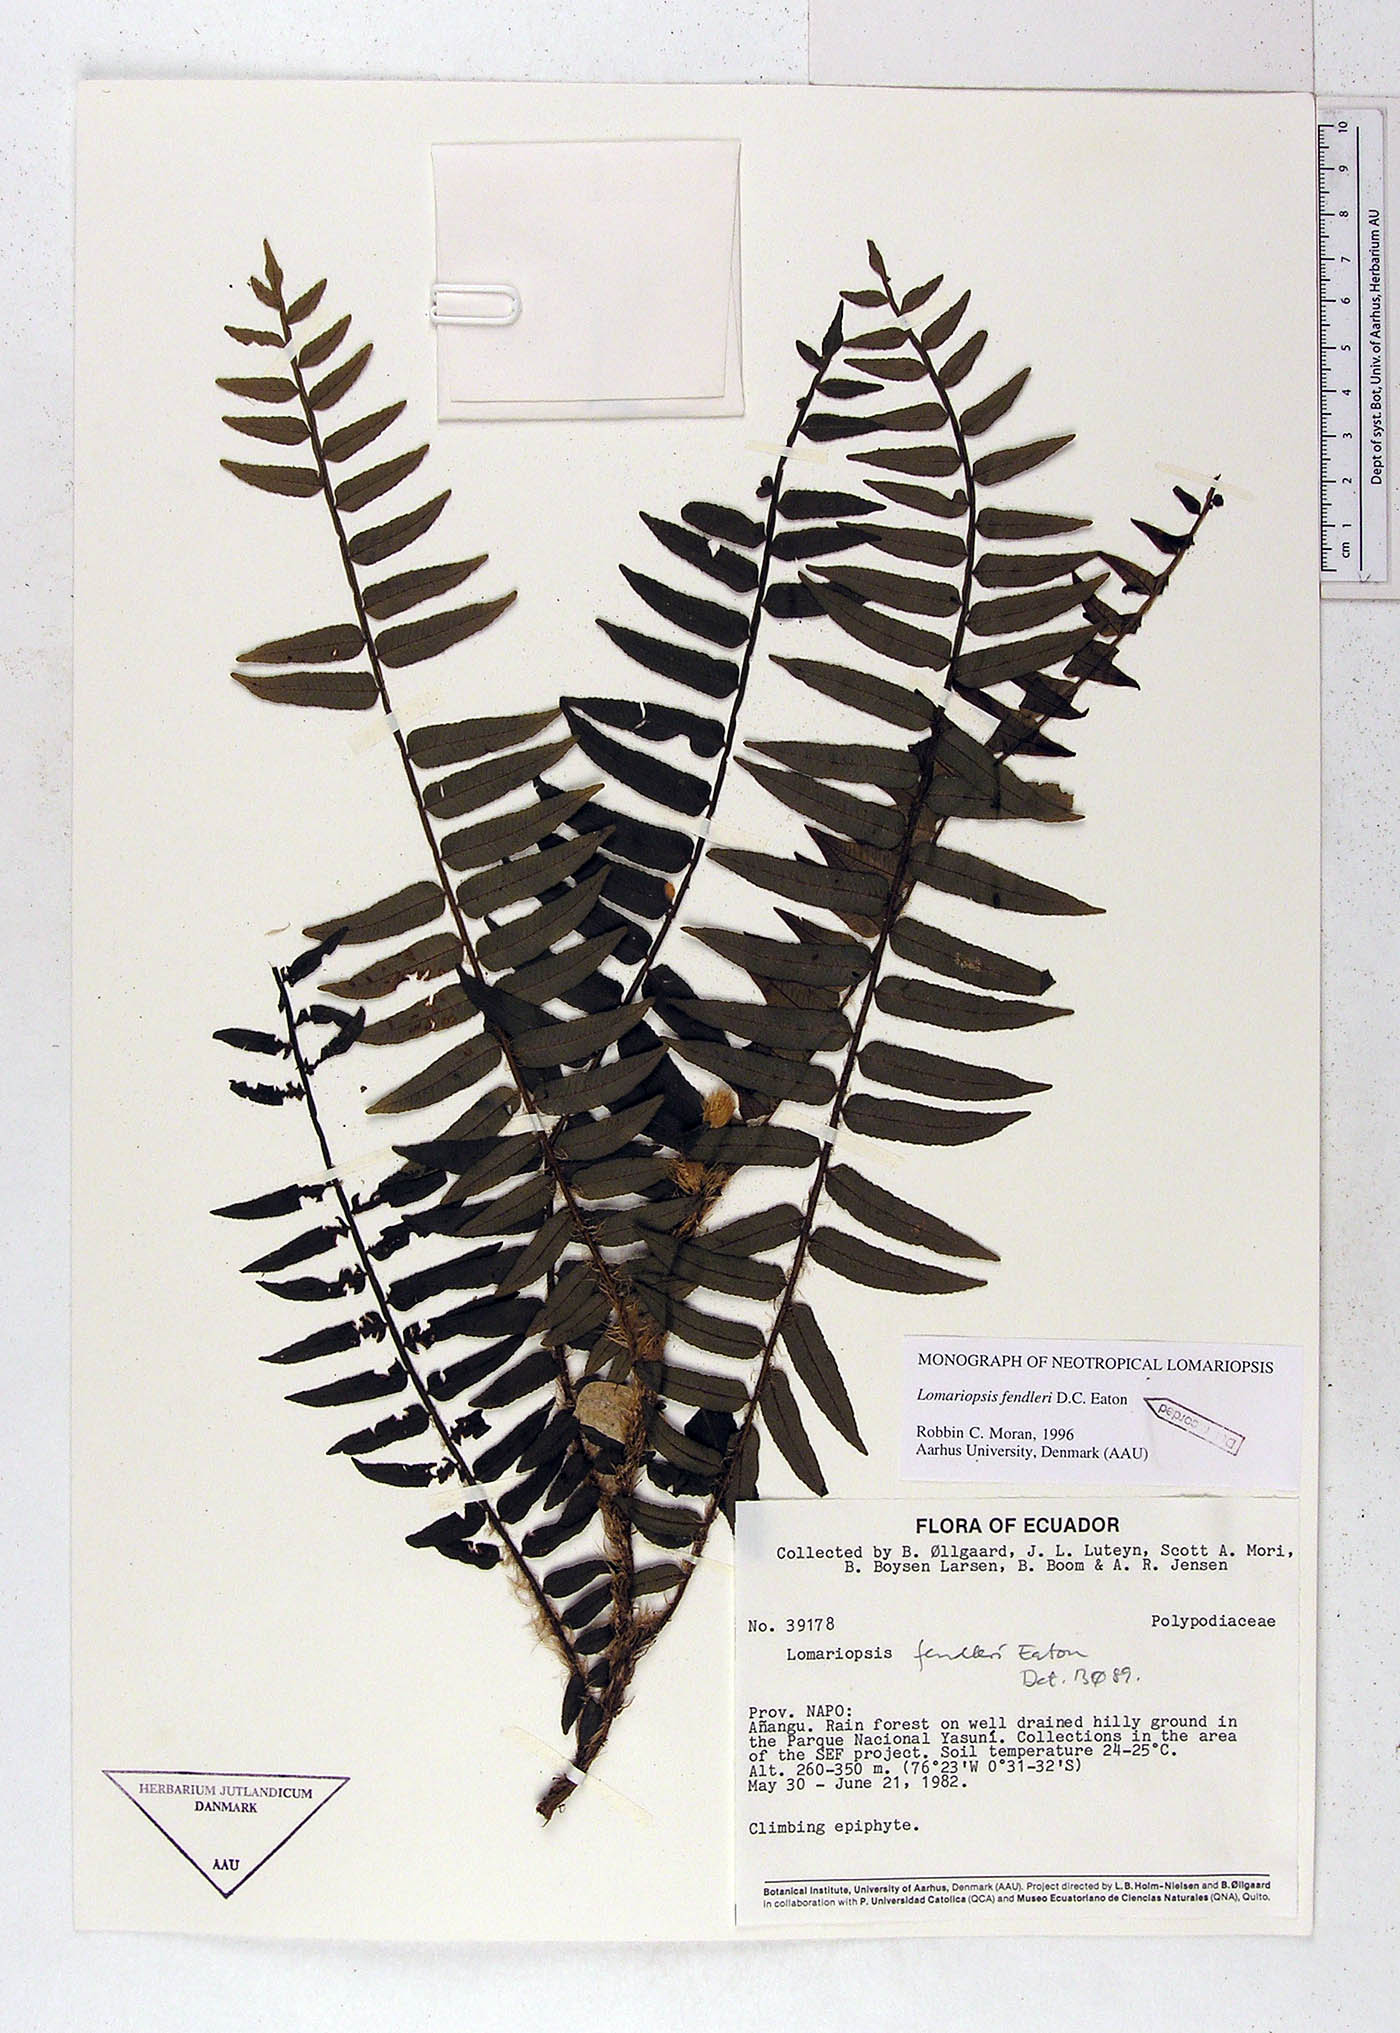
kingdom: Plantae
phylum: Tracheophyta
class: Polypodiopsida
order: Polypodiales
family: Lomariopsidaceae
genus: Lomariopsis
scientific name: Lomariopsis fendleri
